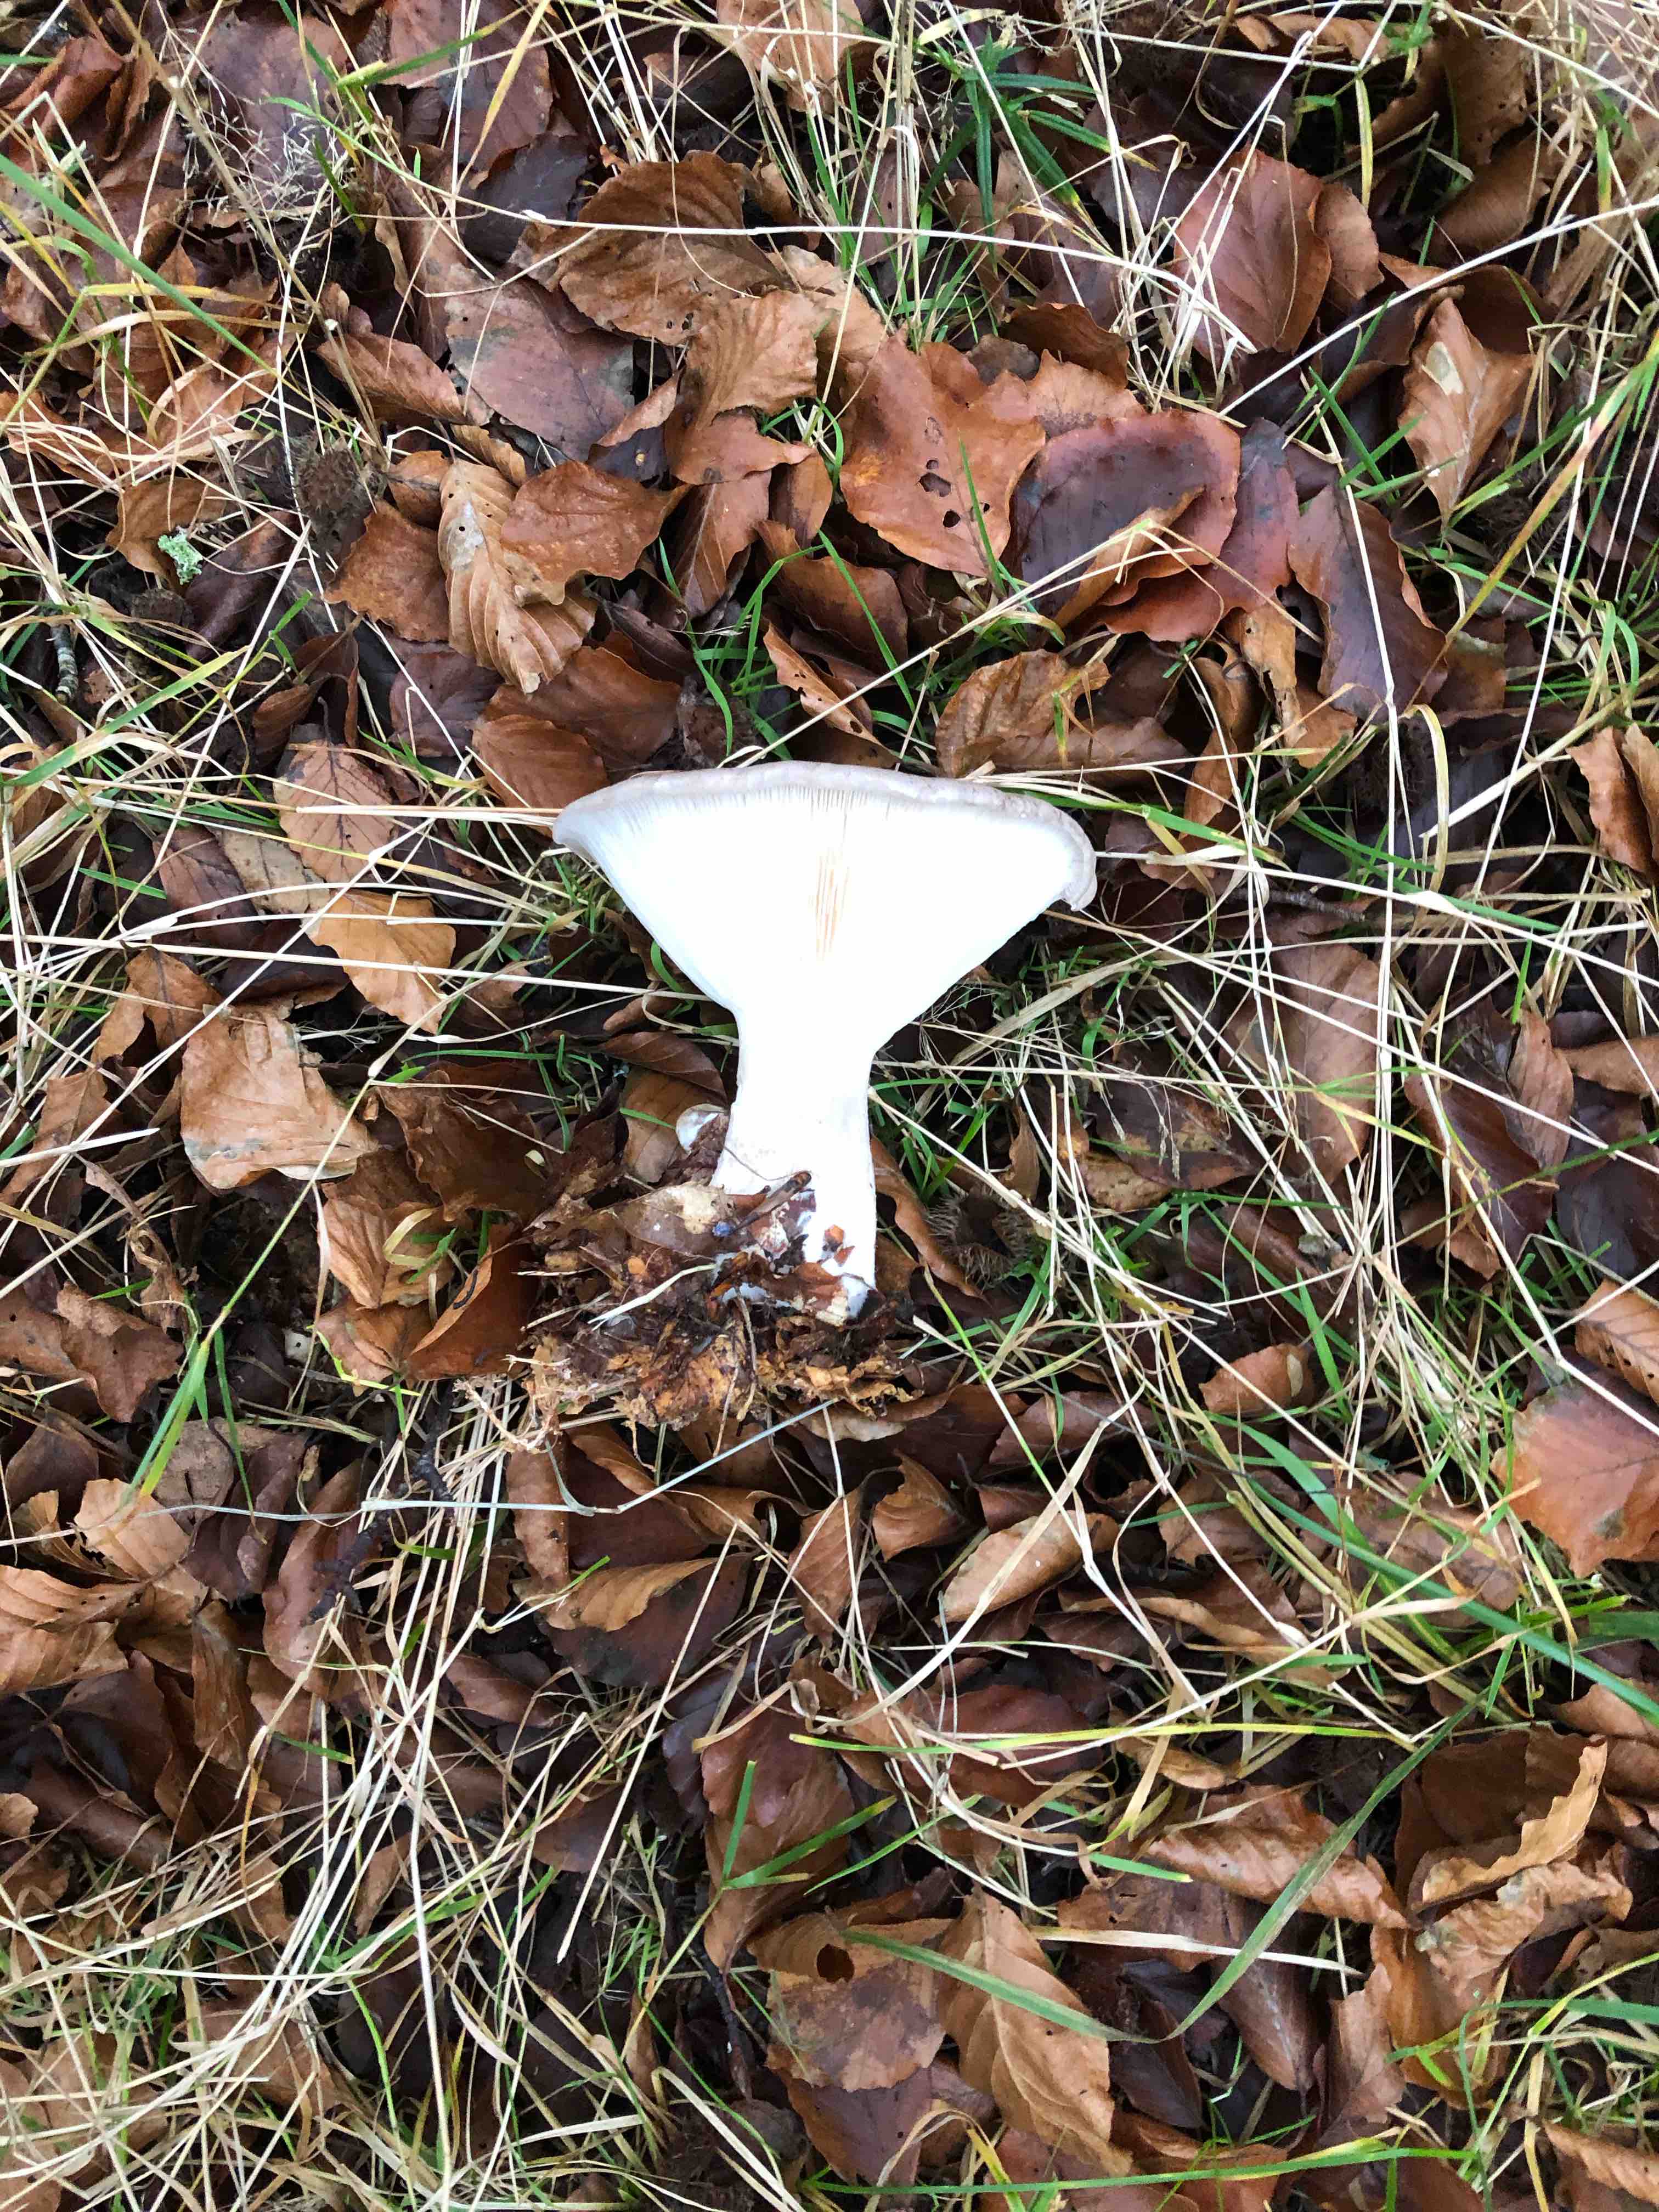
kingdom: Fungi
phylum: Basidiomycota
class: Agaricomycetes
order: Agaricales
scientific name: Agaricales
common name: champignonordenen
